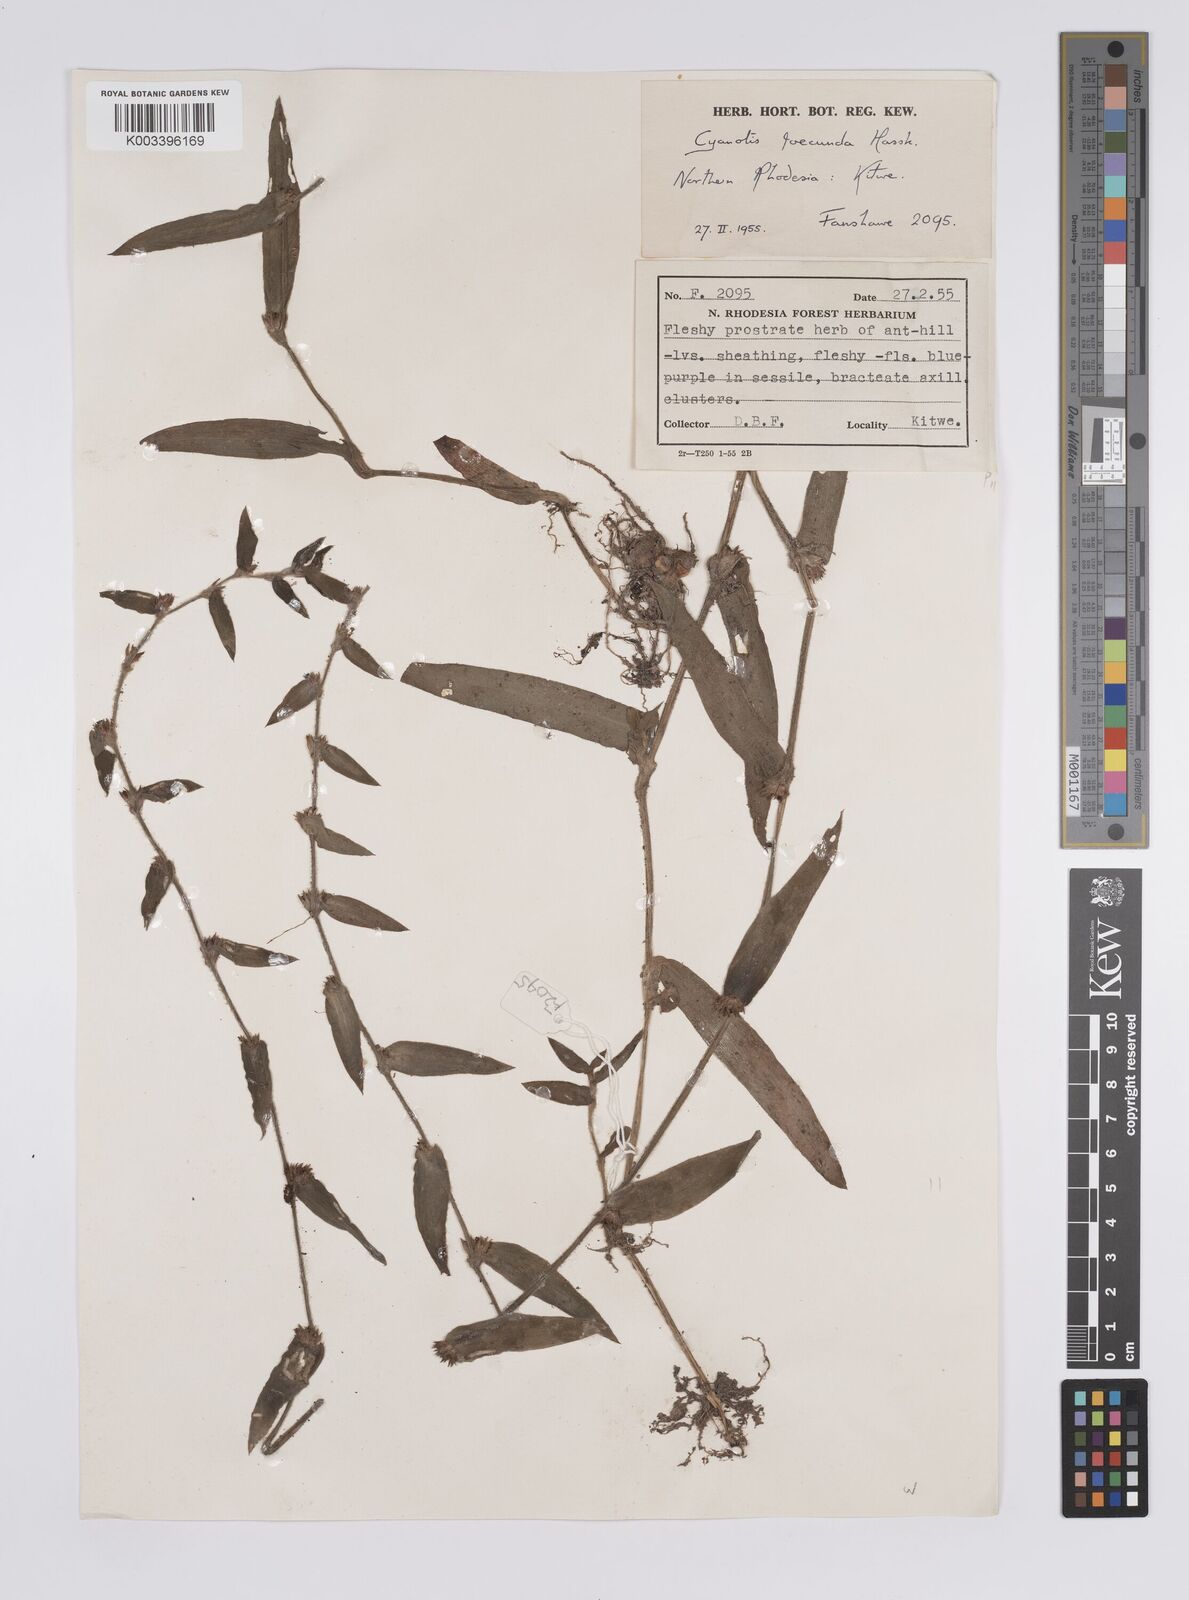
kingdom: Plantae
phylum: Tracheophyta
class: Liliopsida
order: Commelinales
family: Commelinaceae
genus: Cyanotis
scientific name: Cyanotis foecunda
